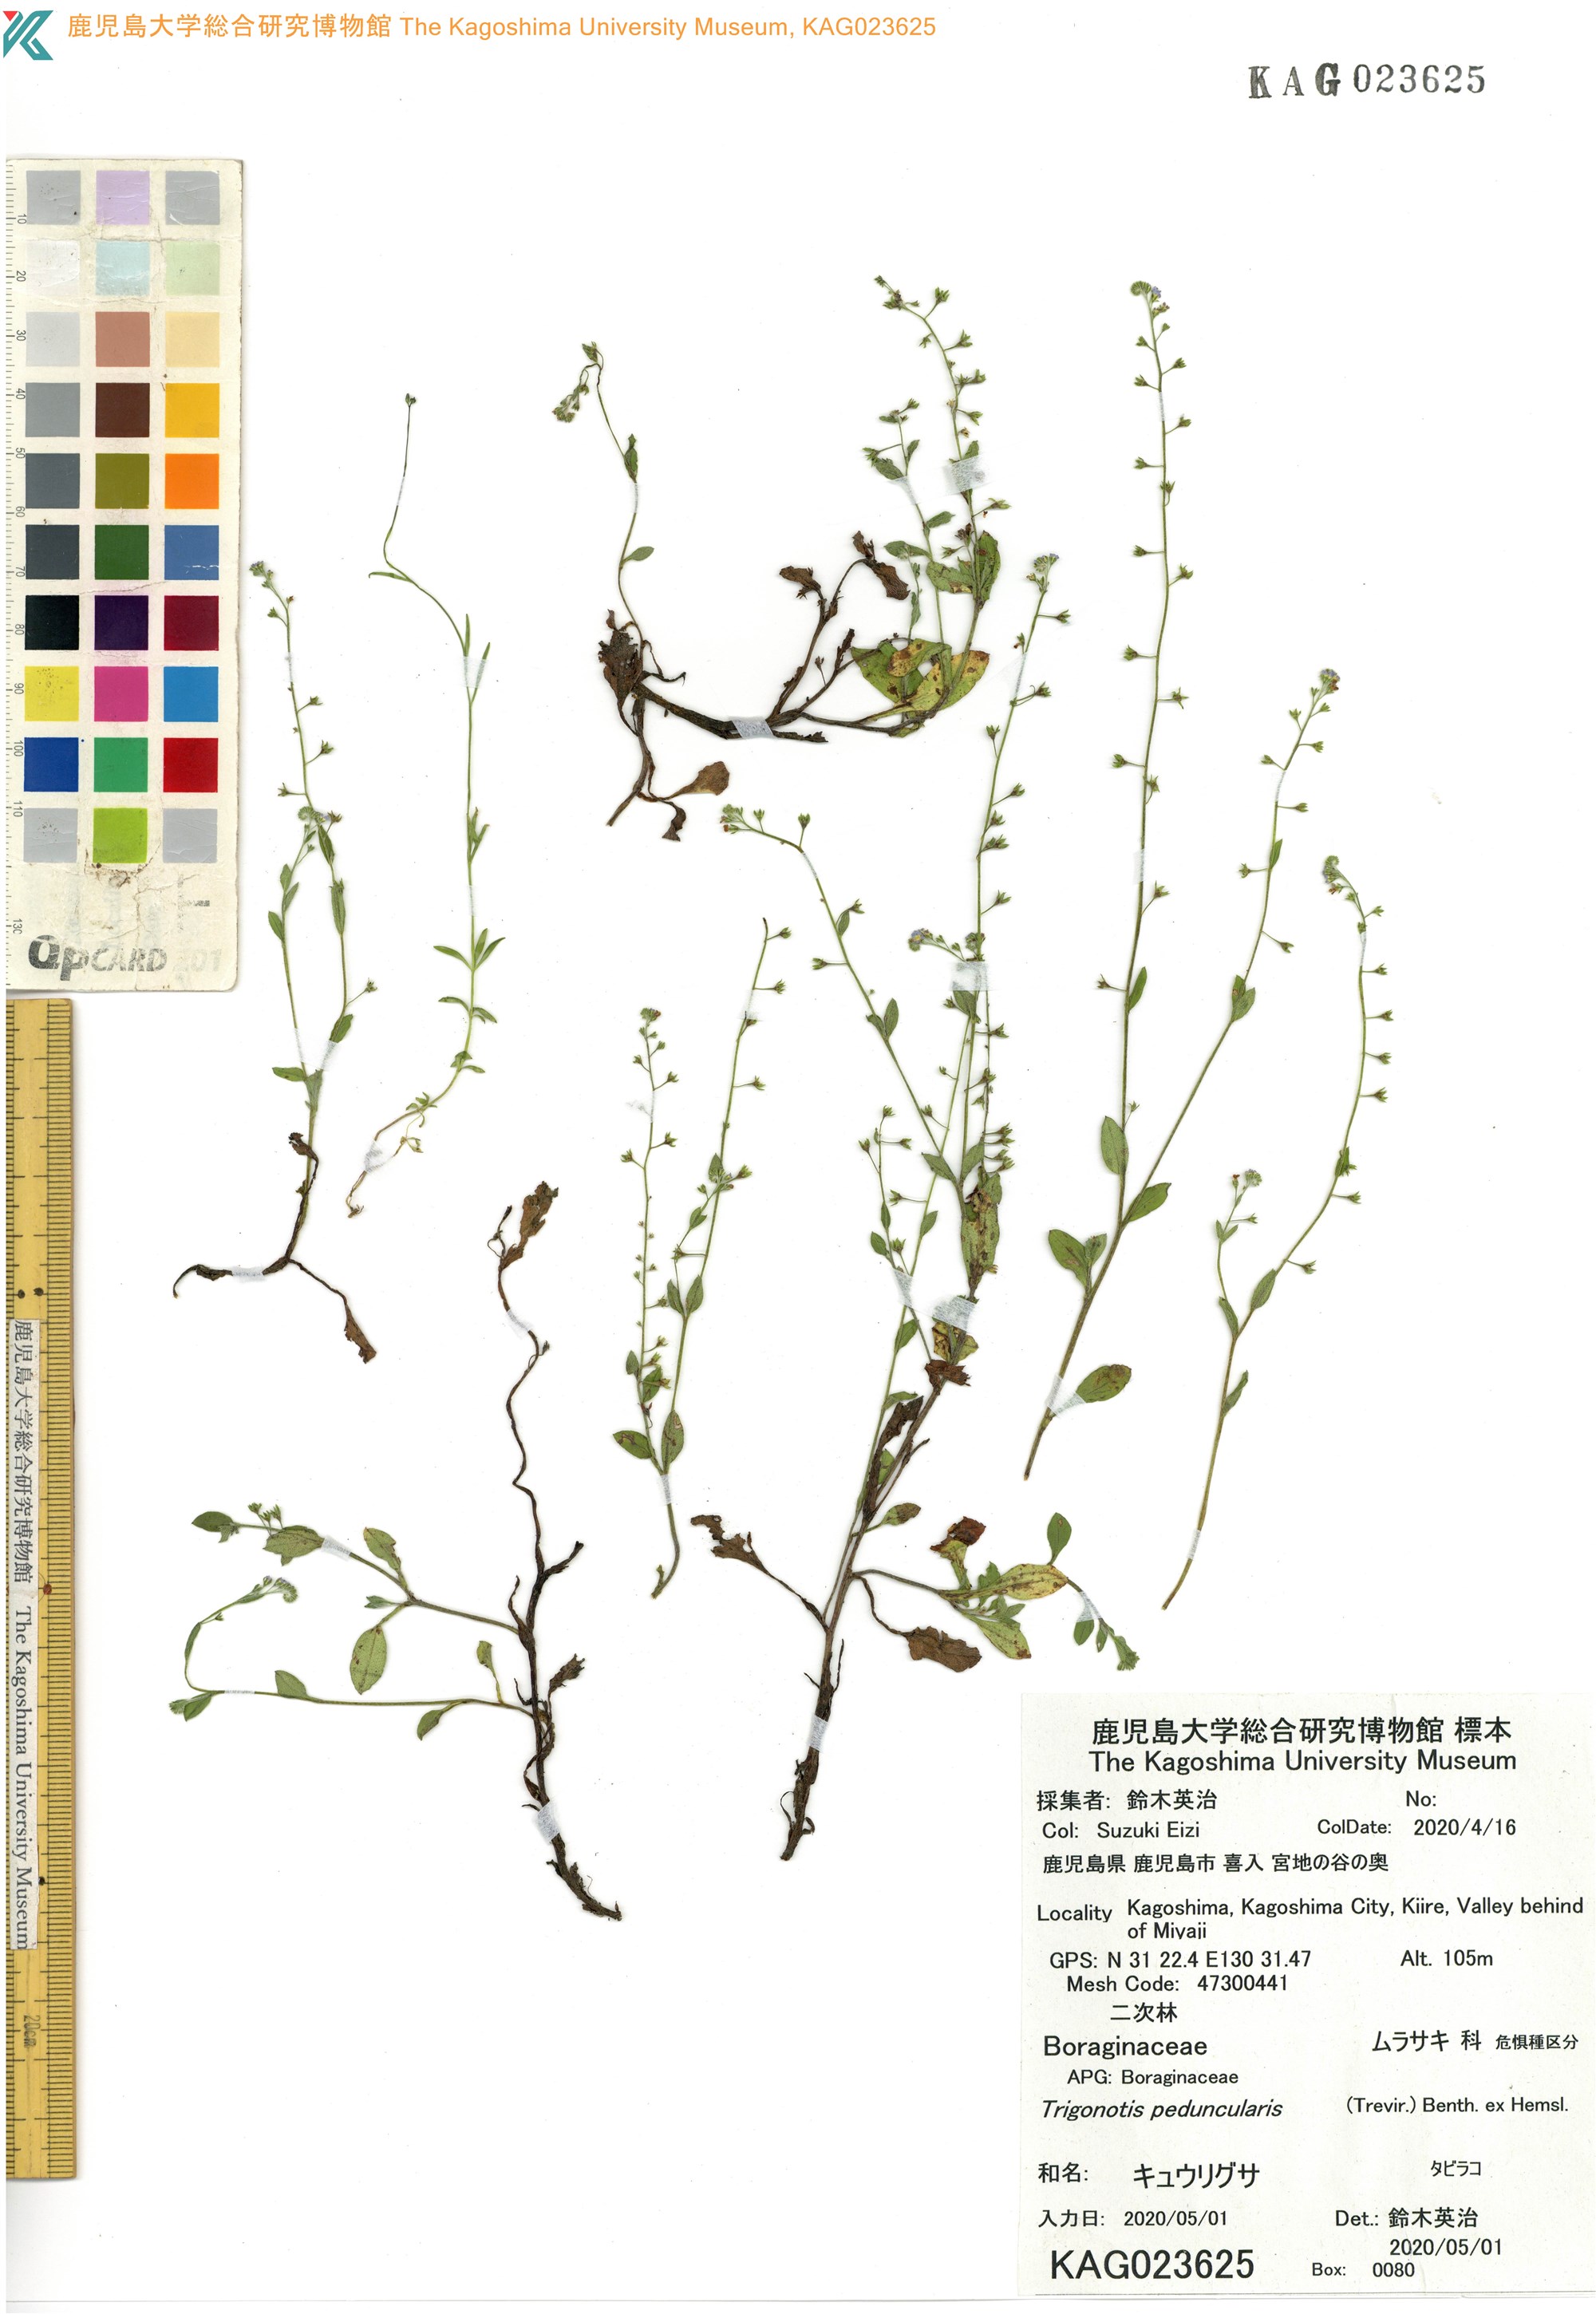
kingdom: Plantae
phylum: Tracheophyta
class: Magnoliopsida
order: Boraginales
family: Boraginaceae
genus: Trigonotis
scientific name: Trigonotis peduncularis
